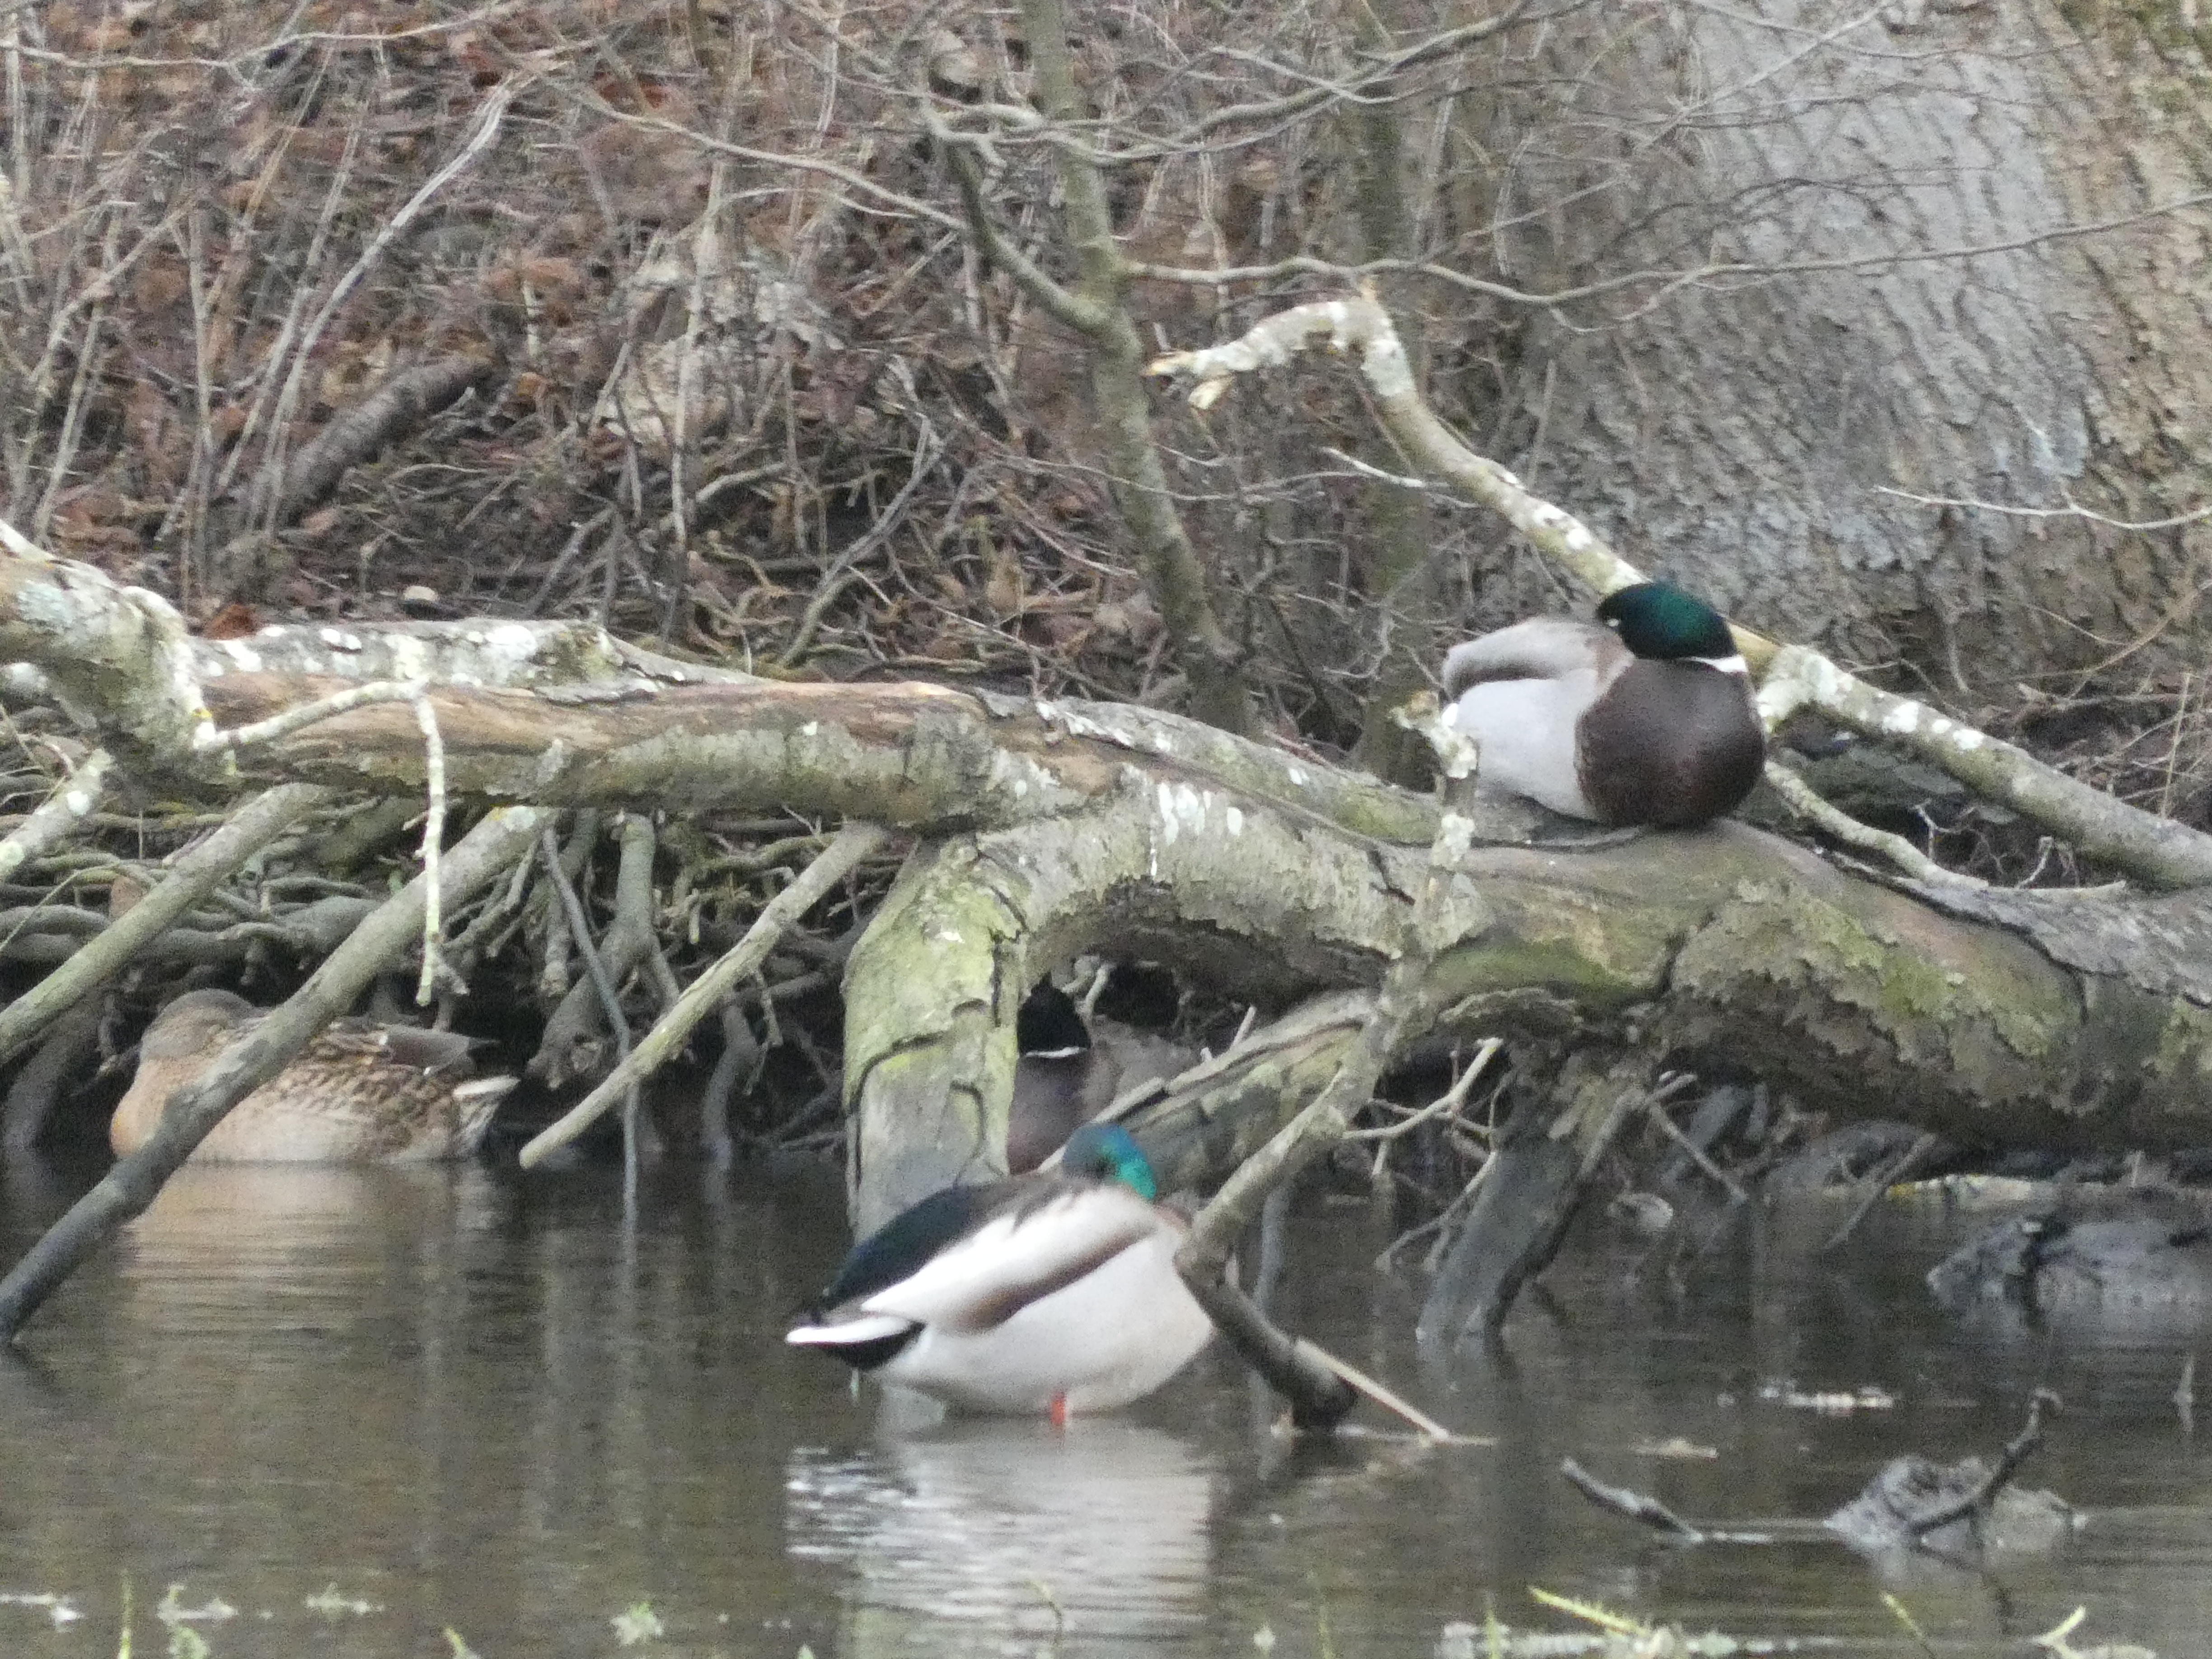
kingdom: Animalia
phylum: Chordata
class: Aves
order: Anseriformes
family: Anatidae
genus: Anas
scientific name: Anas platyrhynchos
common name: Gråand
